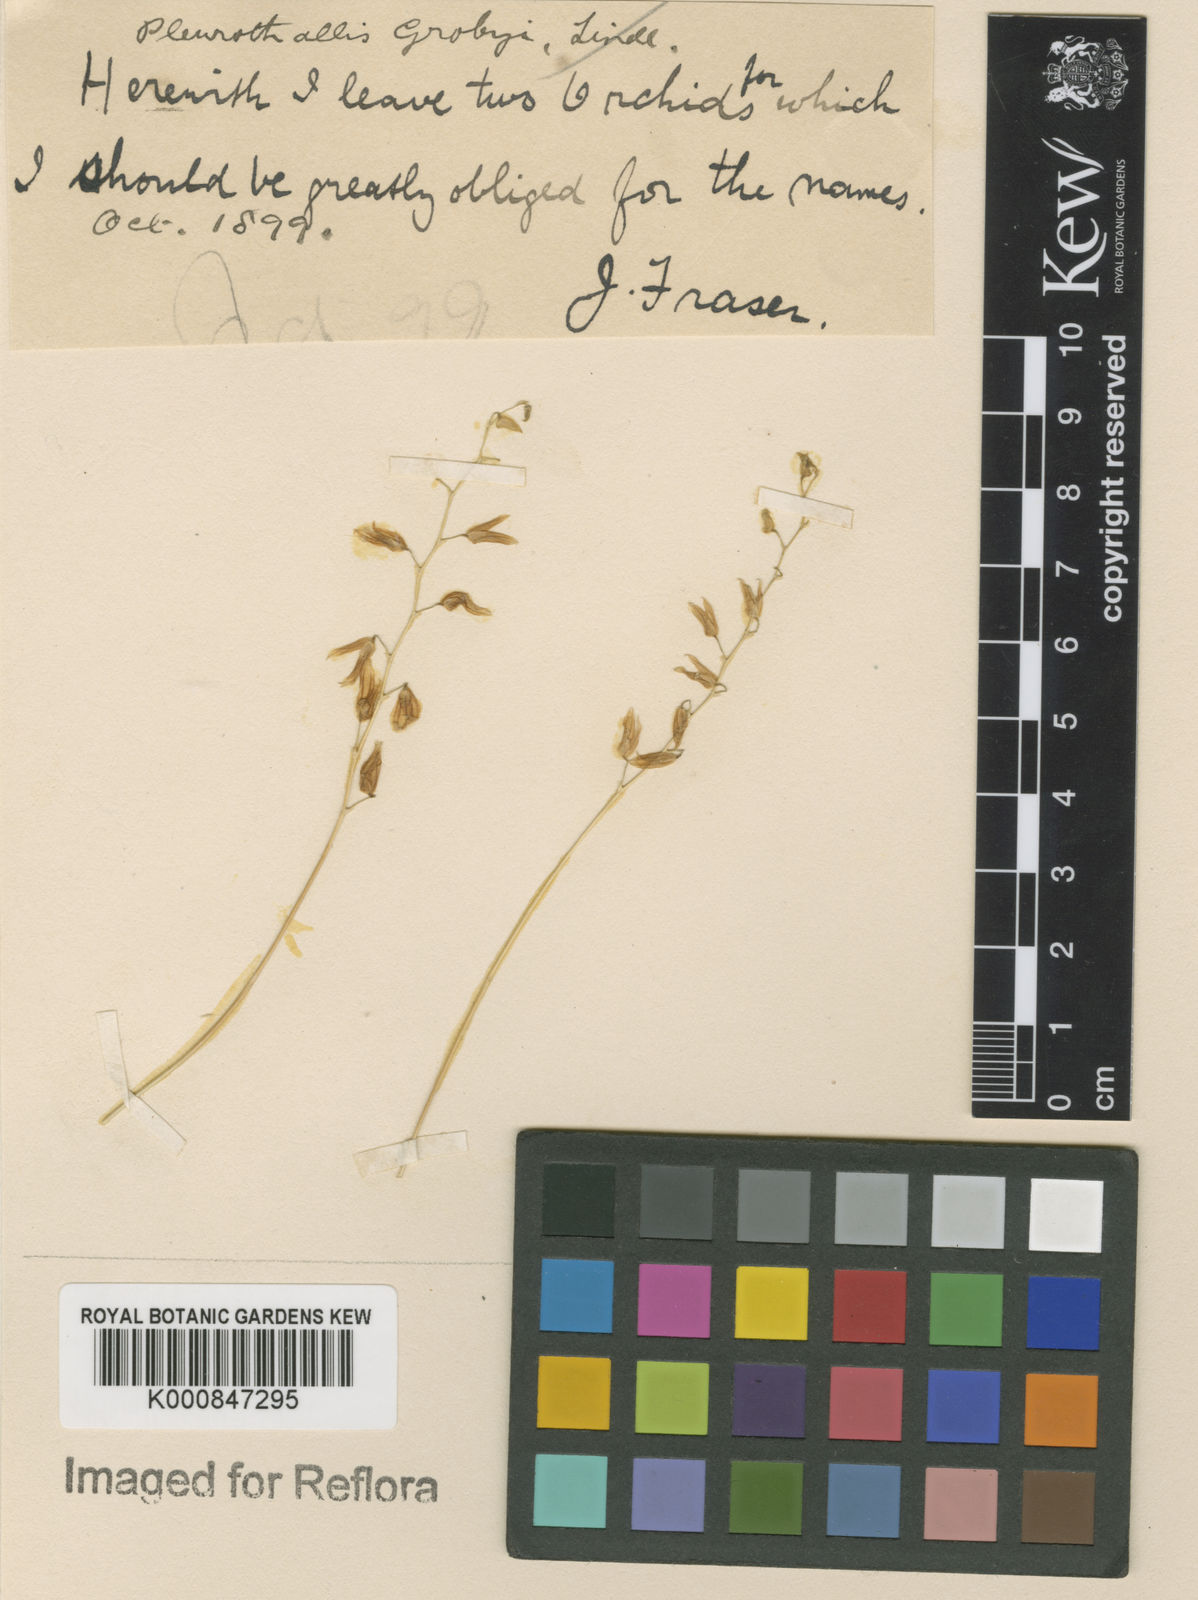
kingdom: Plantae
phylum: Tracheophyta
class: Liliopsida
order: Asparagales
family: Orchidaceae
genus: Specklinia
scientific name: Specklinia grobyi
